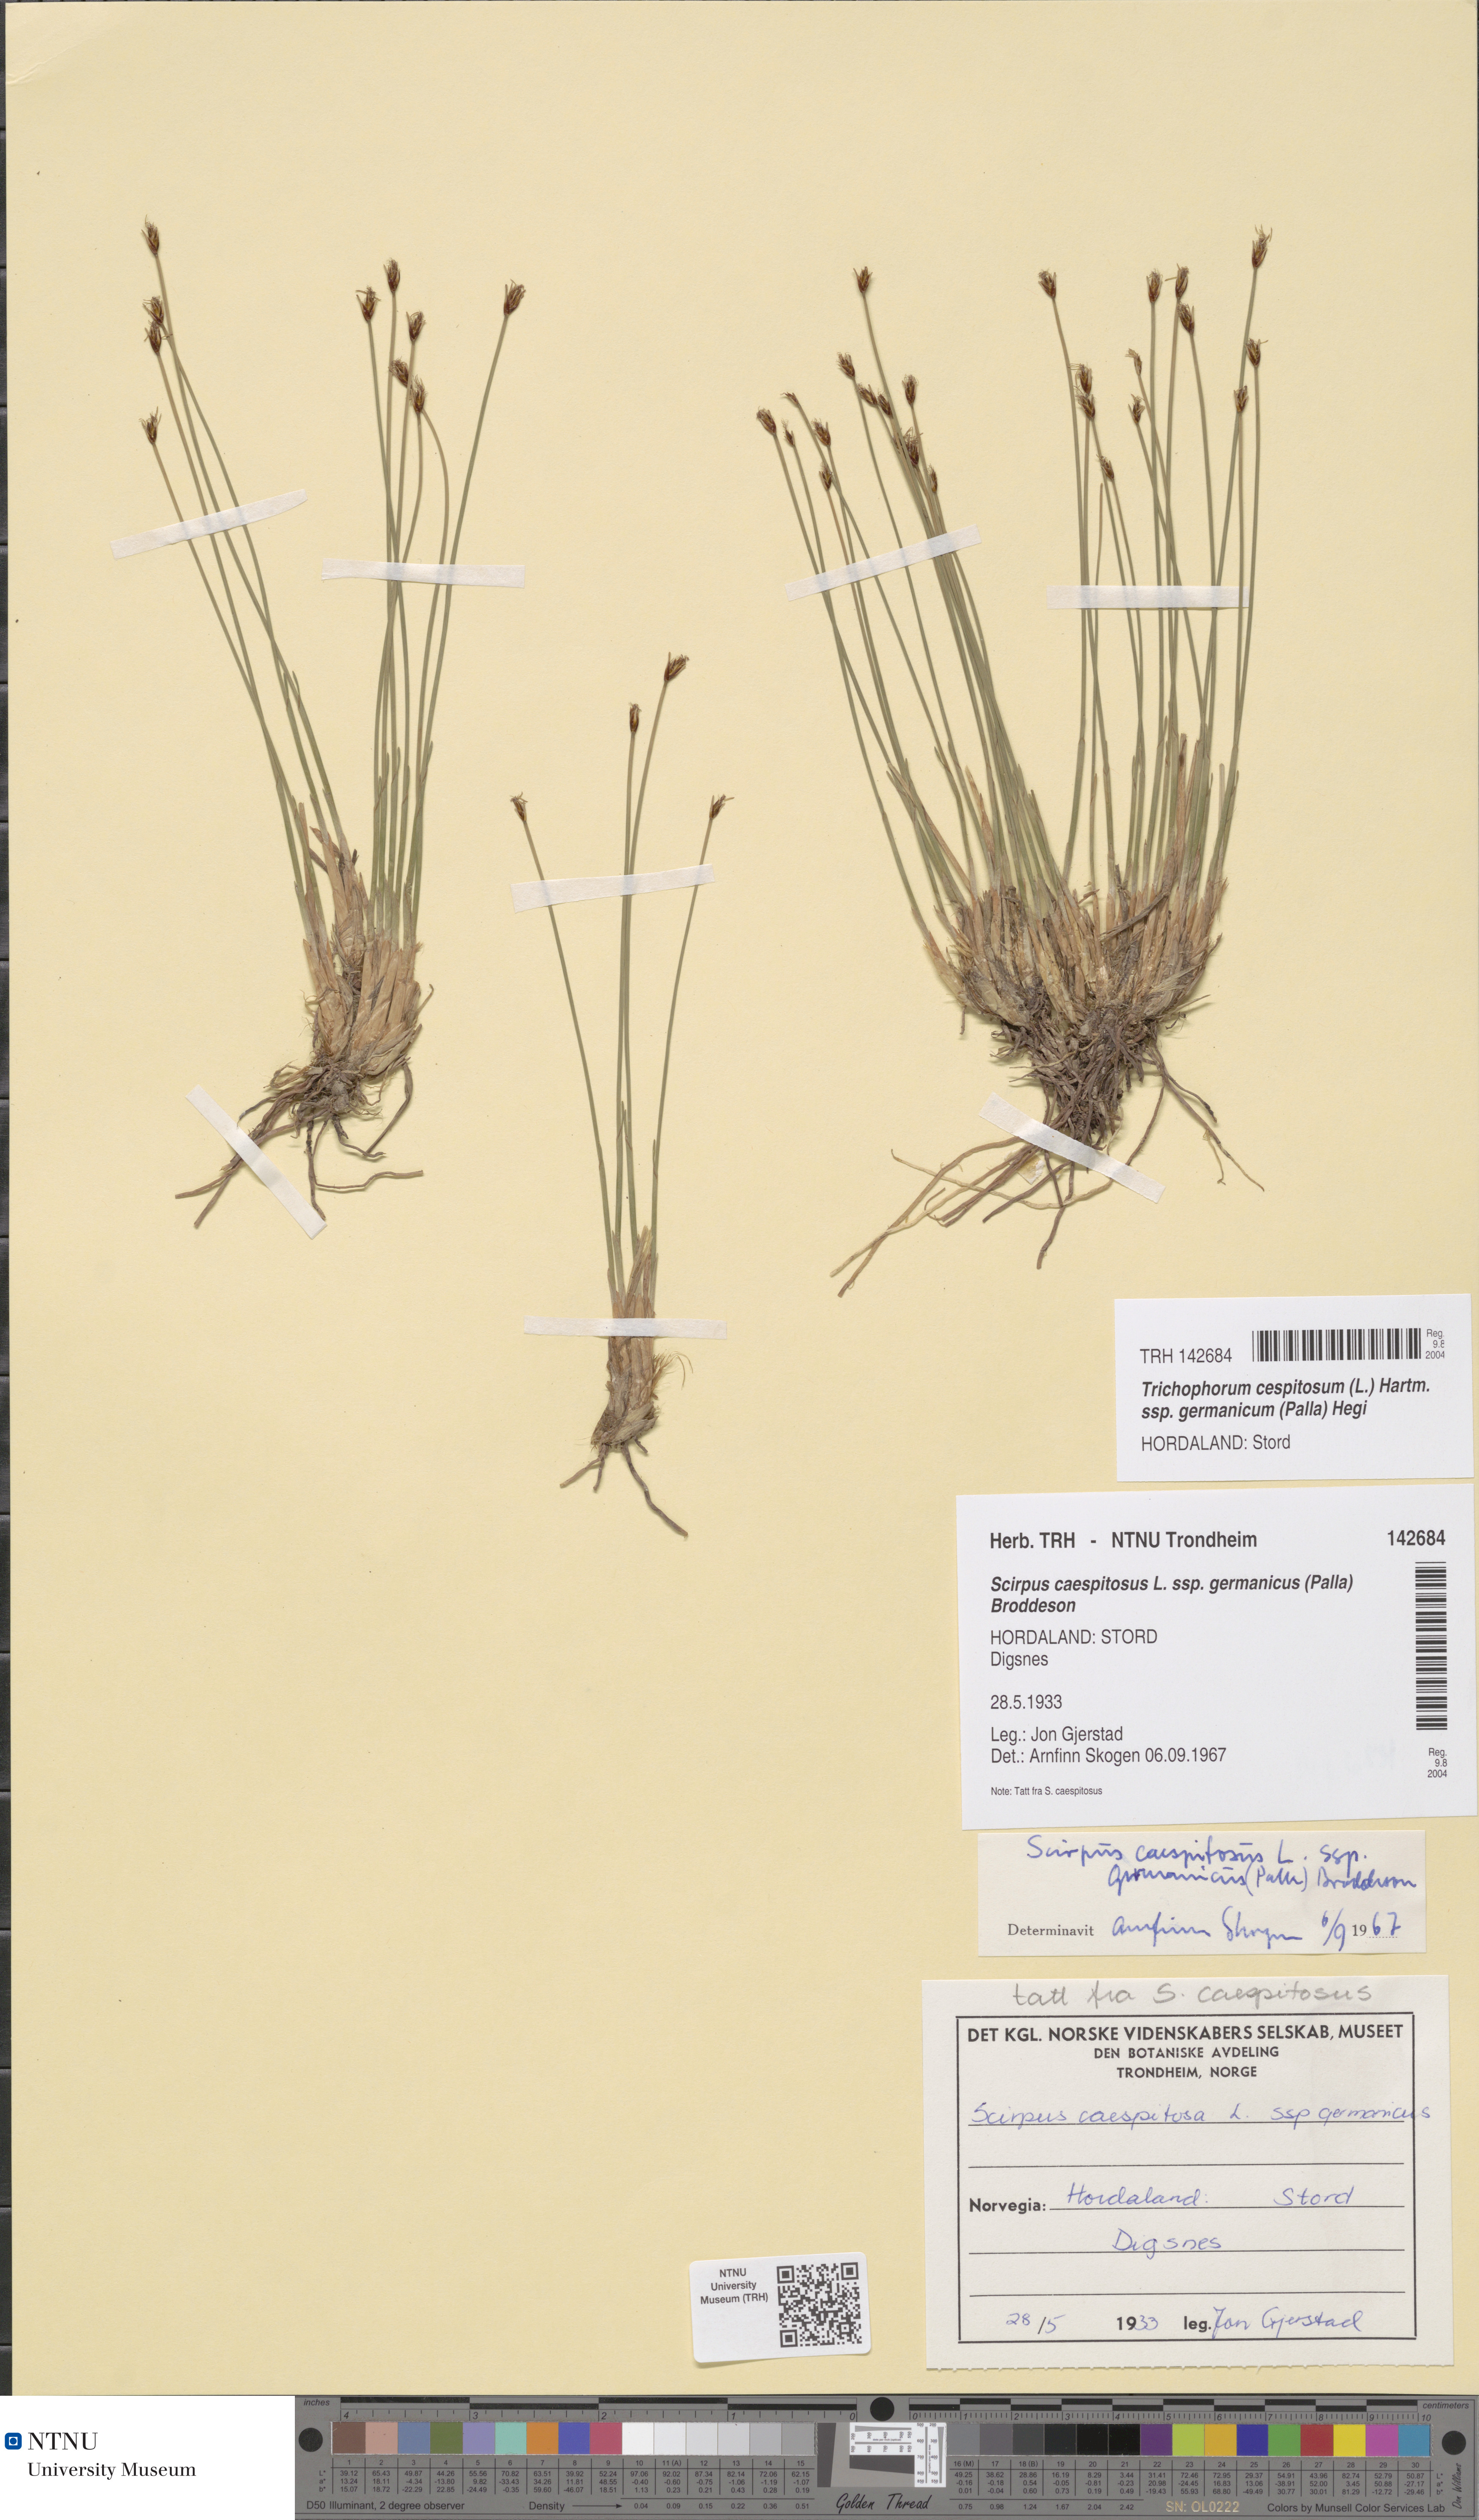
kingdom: Plantae
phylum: Tracheophyta
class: Liliopsida
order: Poales
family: Cyperaceae
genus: Trichophorum
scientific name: Trichophorum cespitosum
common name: Cespitose bulrush
